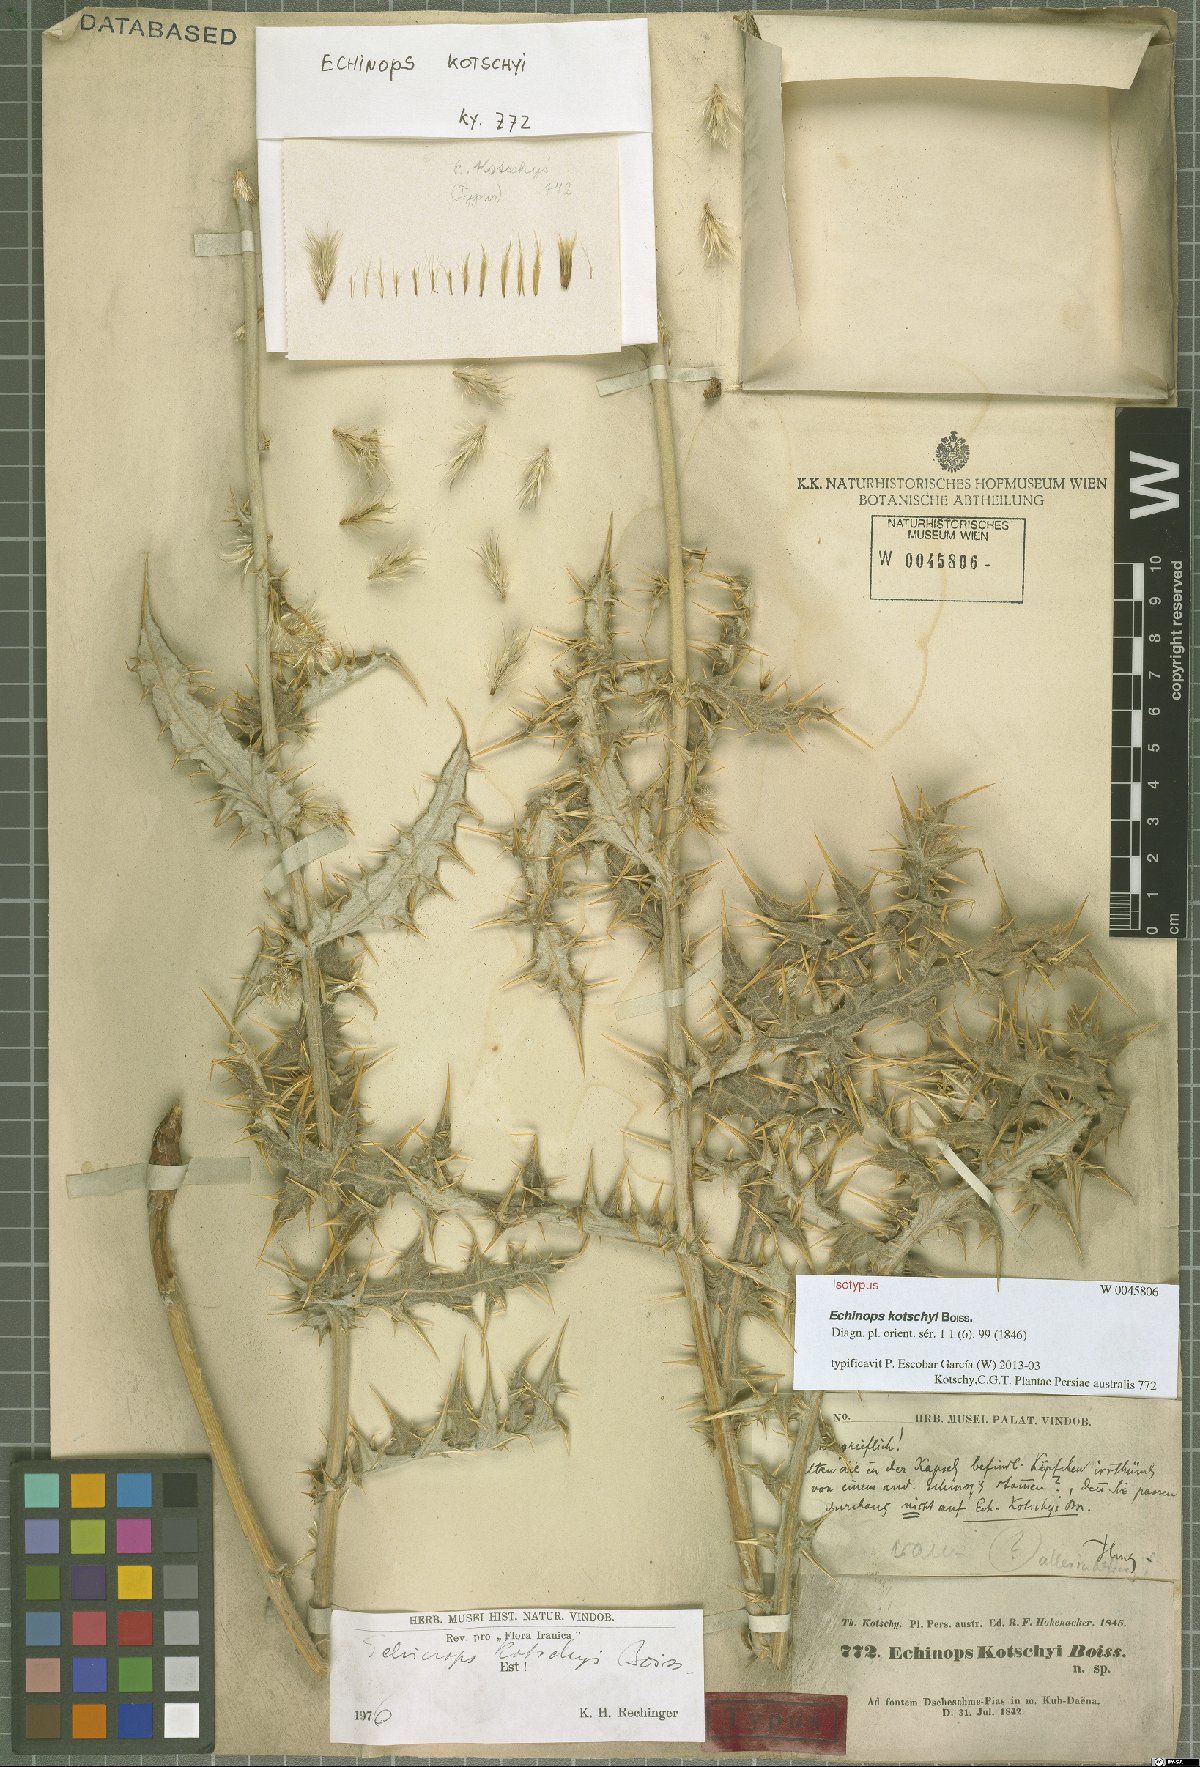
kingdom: Plantae
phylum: Tracheophyta
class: Magnoliopsida
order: Asterales
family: Asteraceae
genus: Echinops
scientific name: Echinops kotschyi
